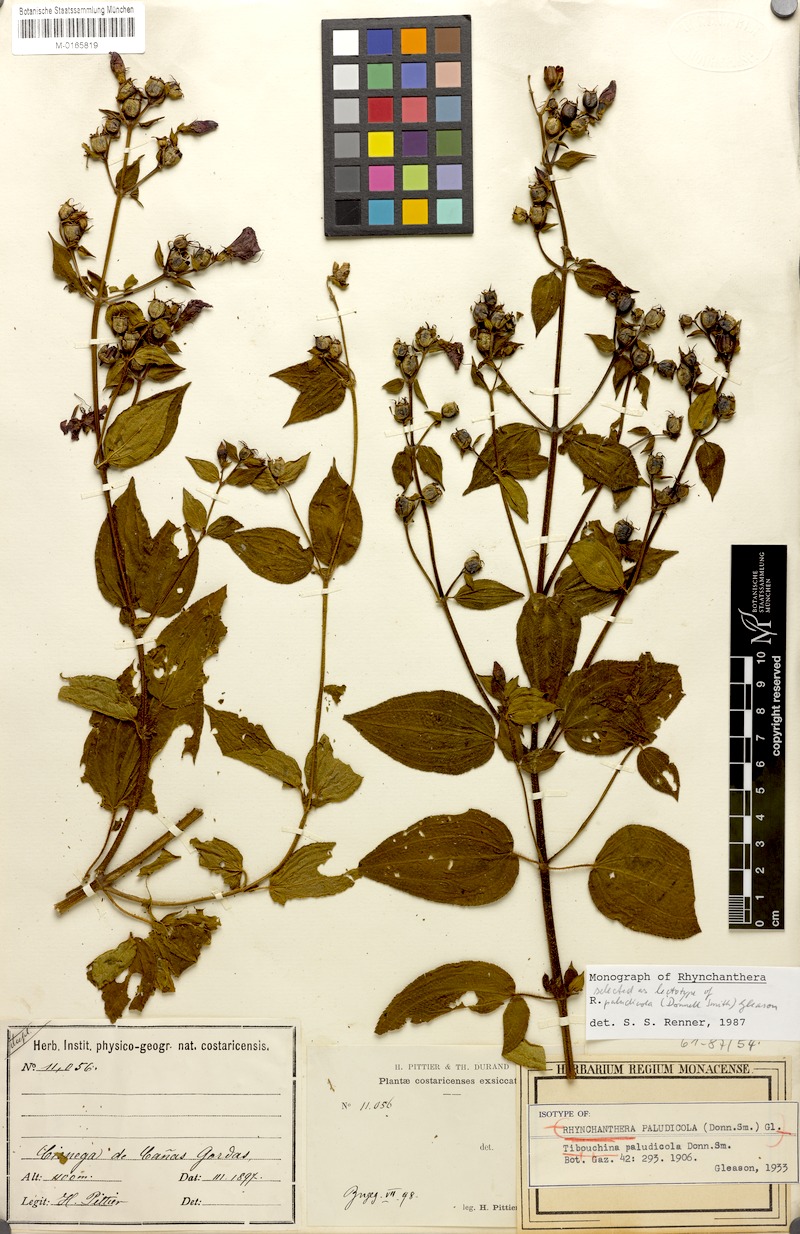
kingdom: Plantae
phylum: Tracheophyta
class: Magnoliopsida
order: Myrtales
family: Melastomataceae
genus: Rhynchanthera
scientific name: Rhynchanthera paludicola
